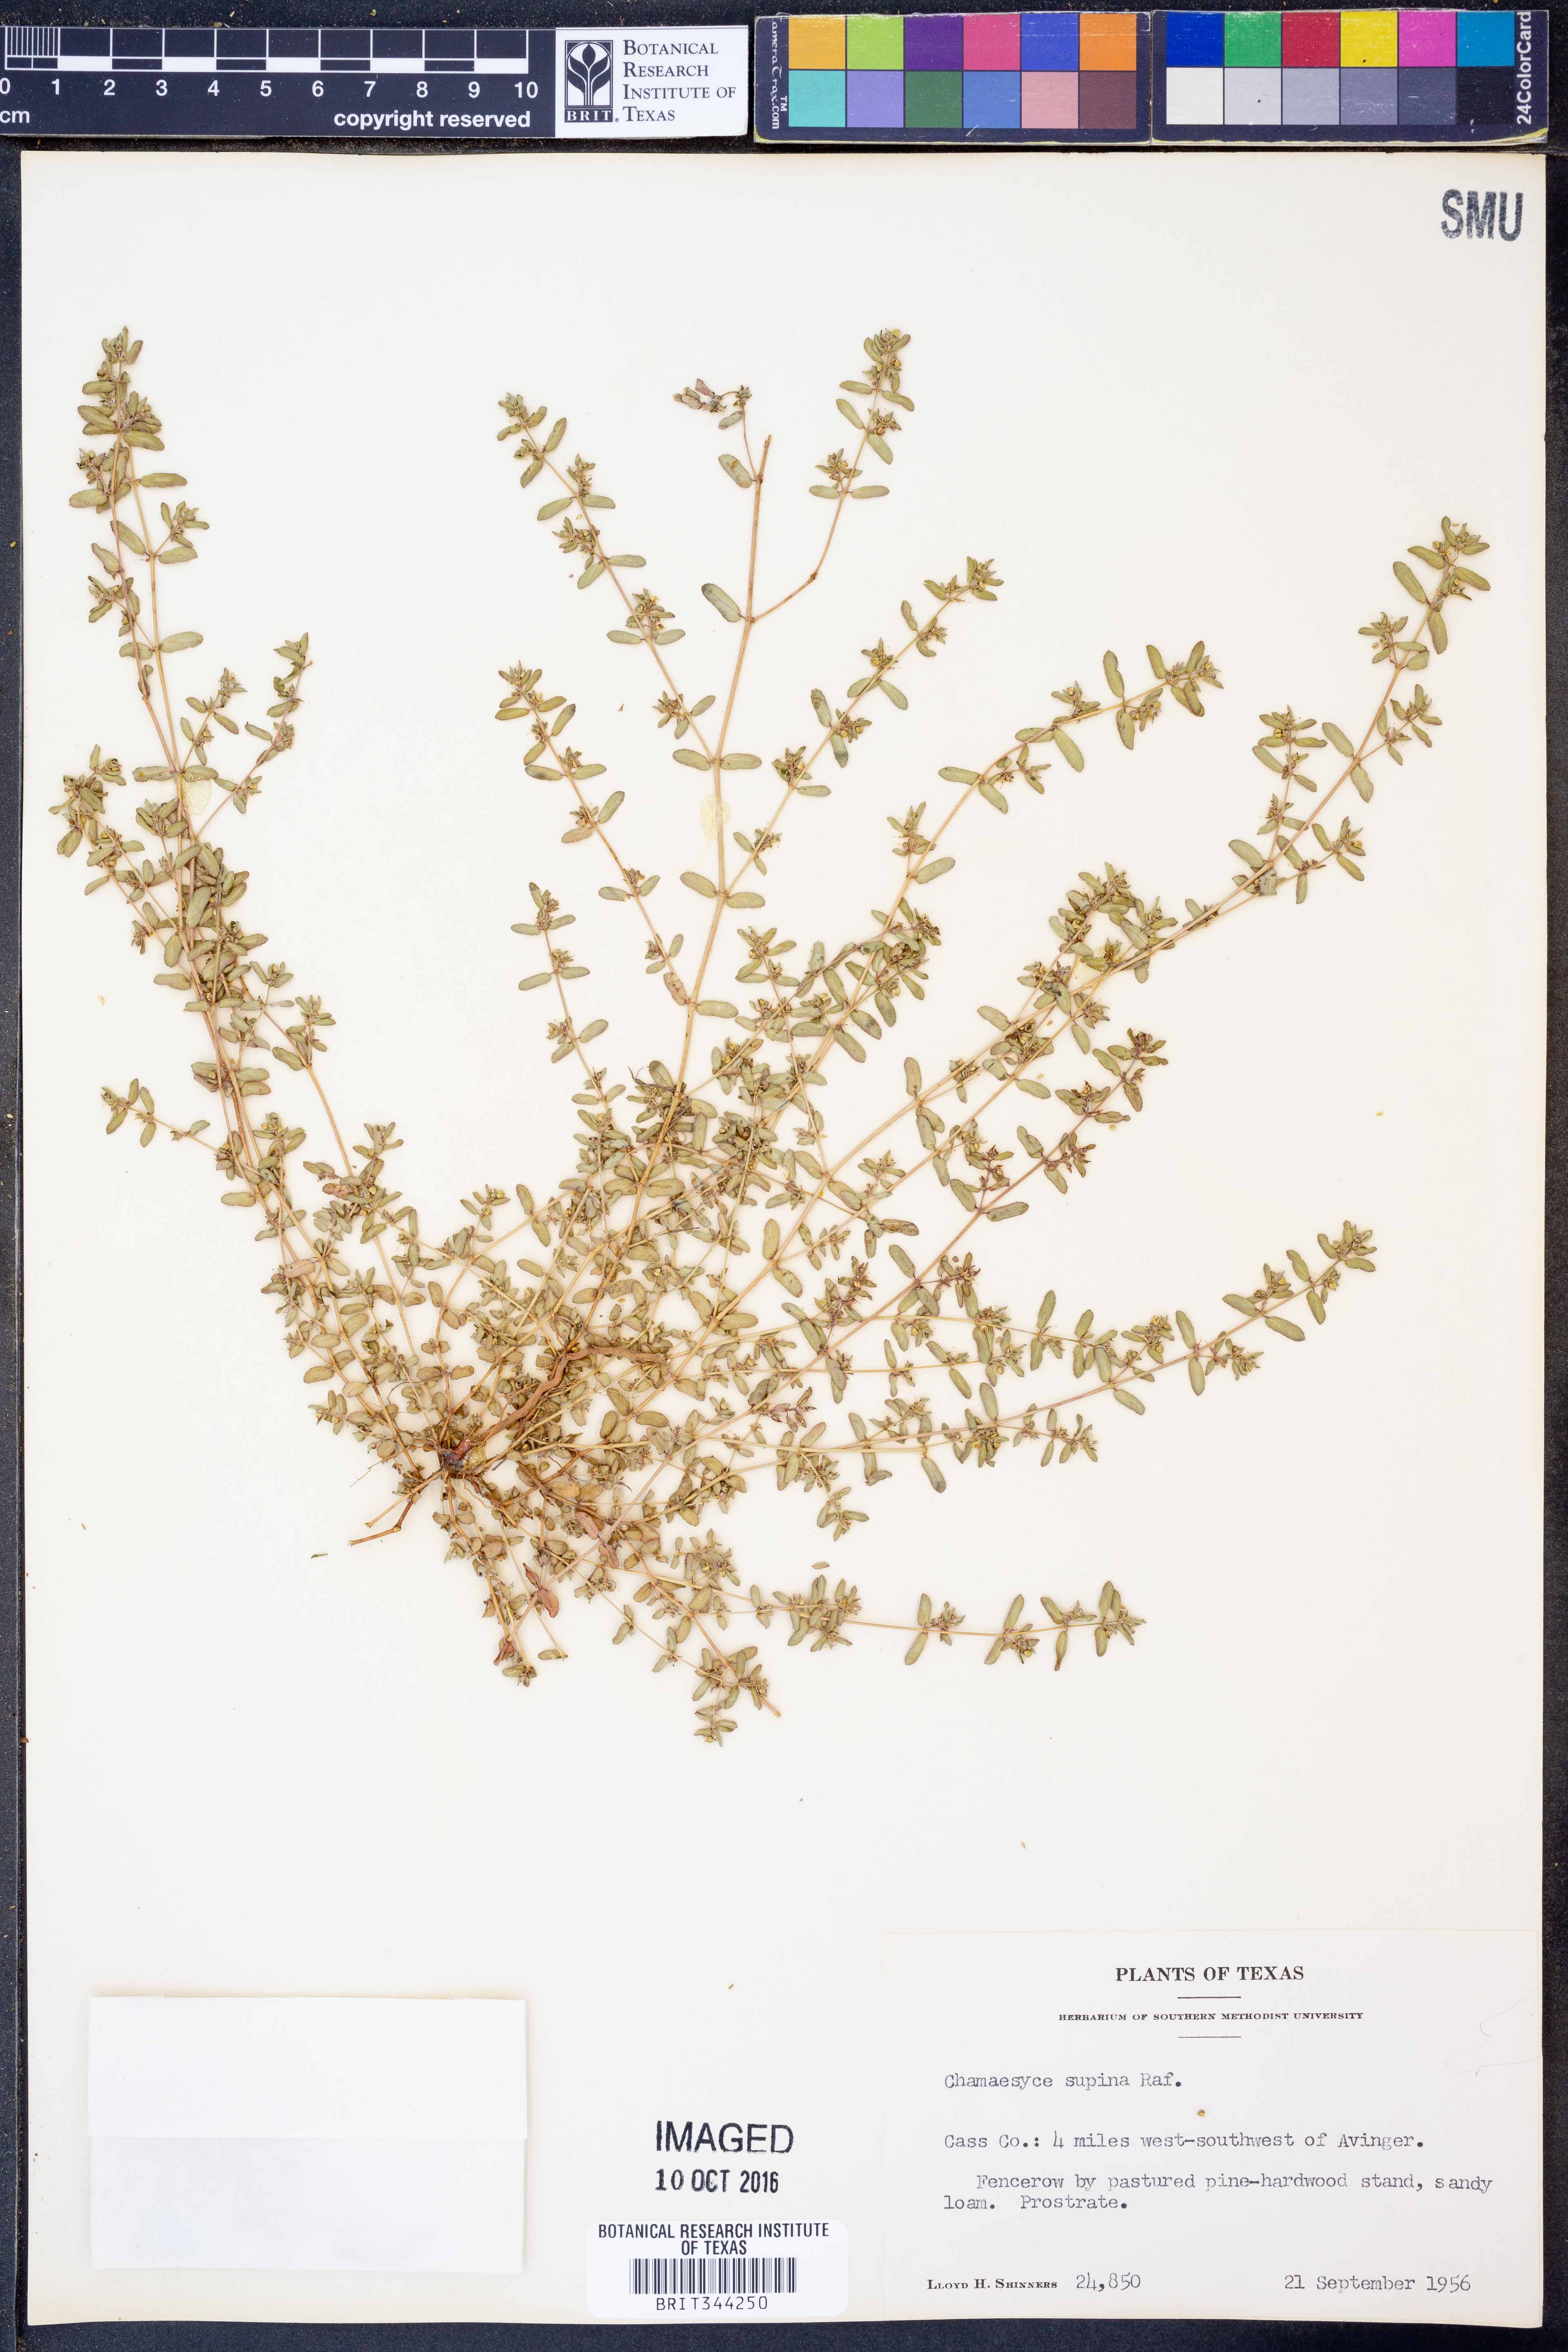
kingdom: Plantae
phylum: Tracheophyta
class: Magnoliopsida
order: Malpighiales
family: Euphorbiaceae
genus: Euphorbia
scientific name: Euphorbia maculata
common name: Spotted spurge
